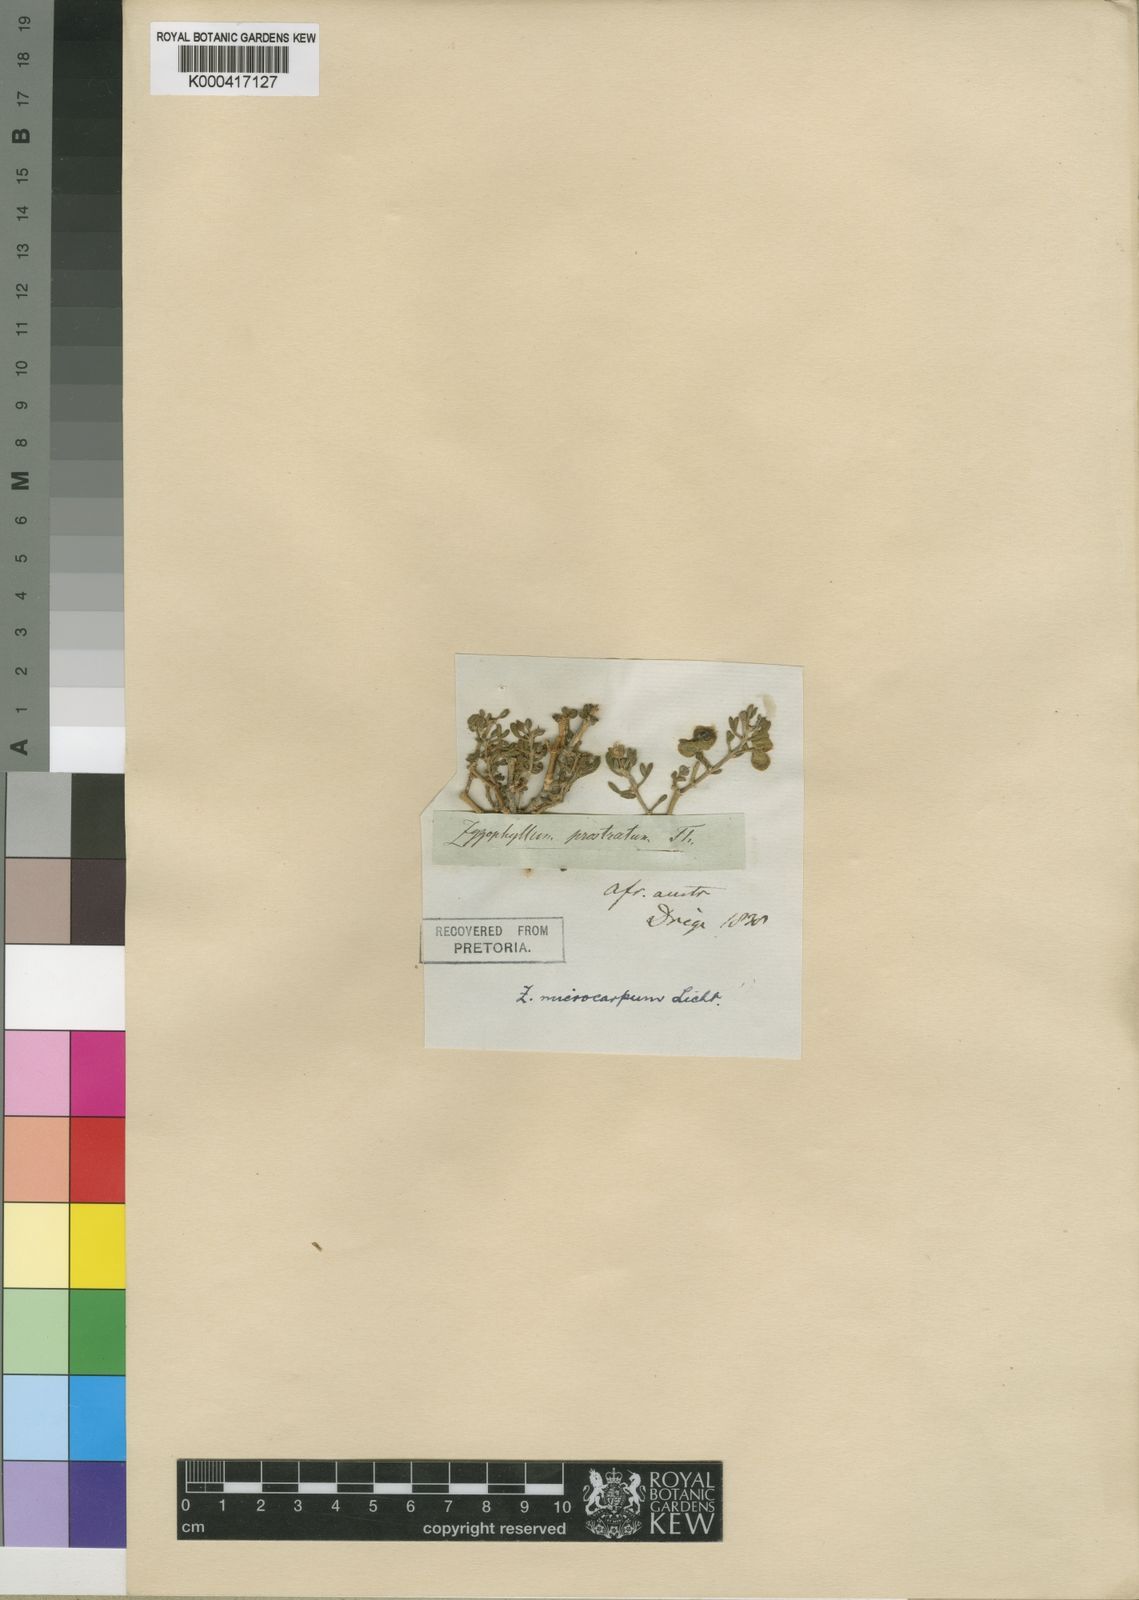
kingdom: Plantae
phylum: Tracheophyta
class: Magnoliopsida
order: Zygophyllales
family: Zygophyllaceae
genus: Tetraena
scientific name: Tetraena microcarpa
